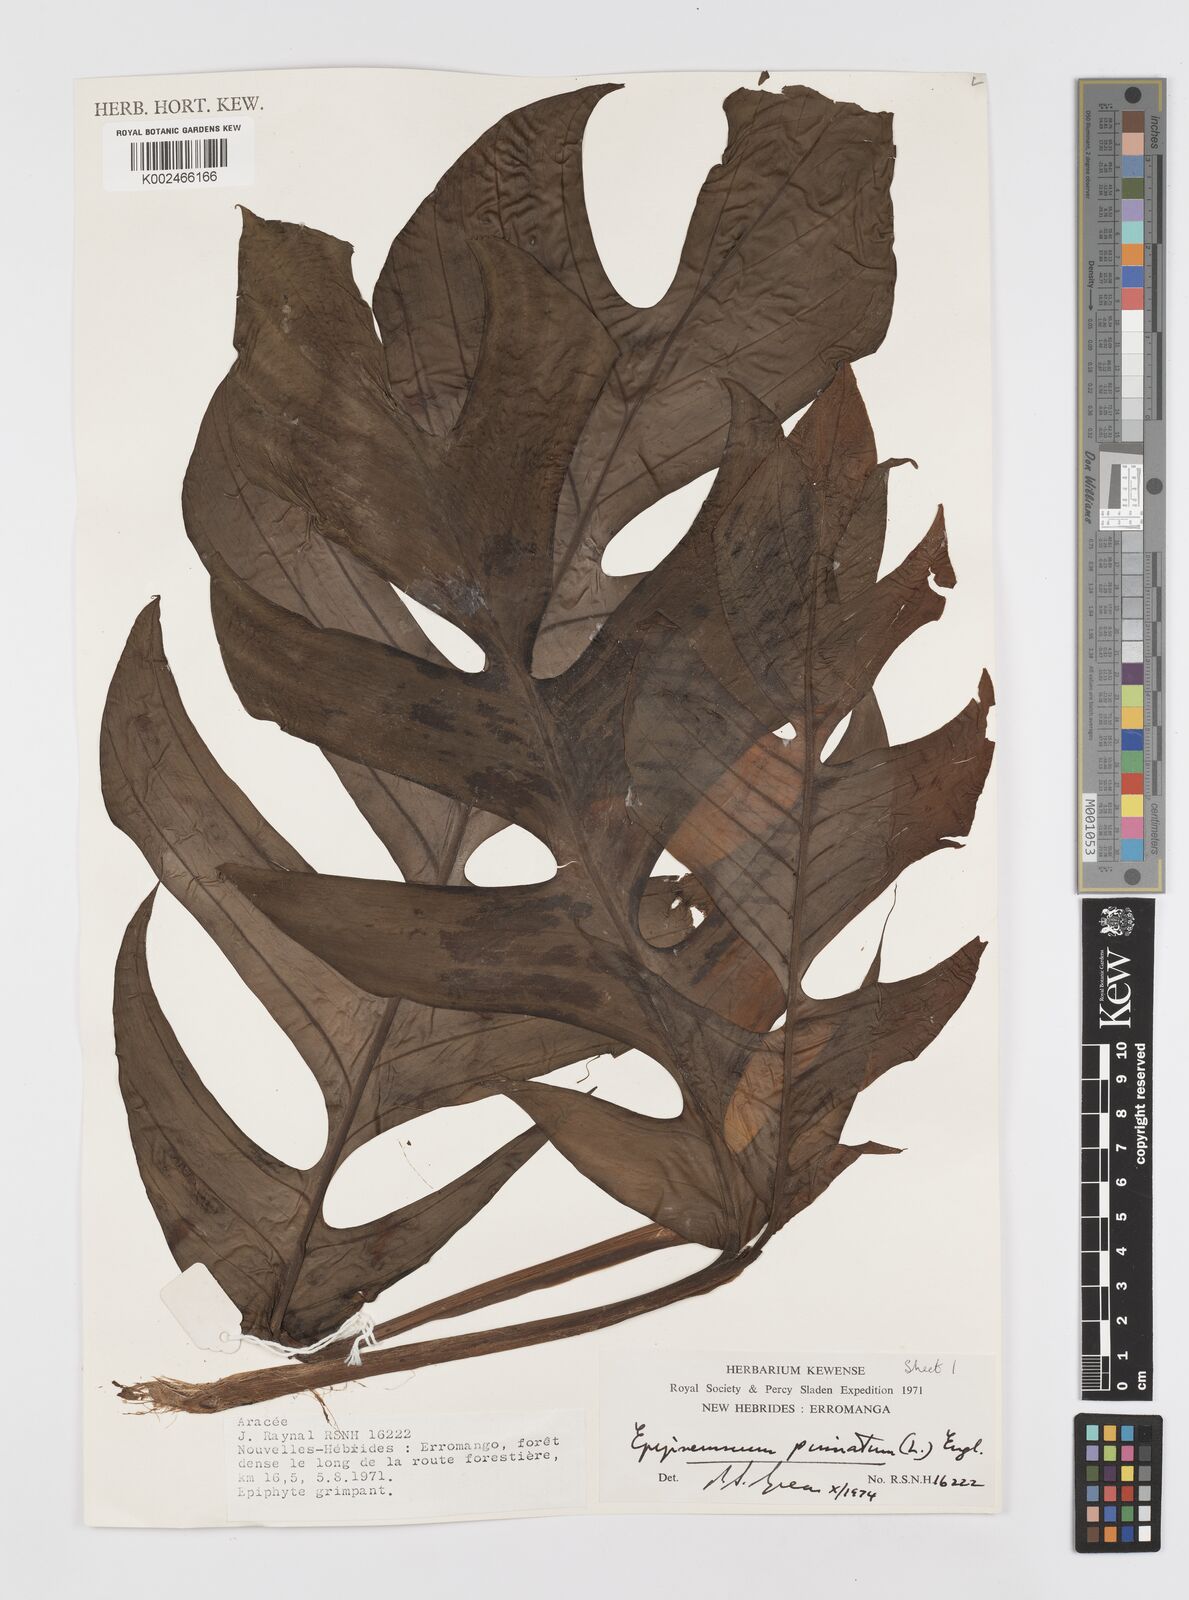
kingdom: Plantae
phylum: Tracheophyta
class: Liliopsida
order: Alismatales
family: Araceae
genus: Rhaphidophora
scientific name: Rhaphidophora korthalsii
